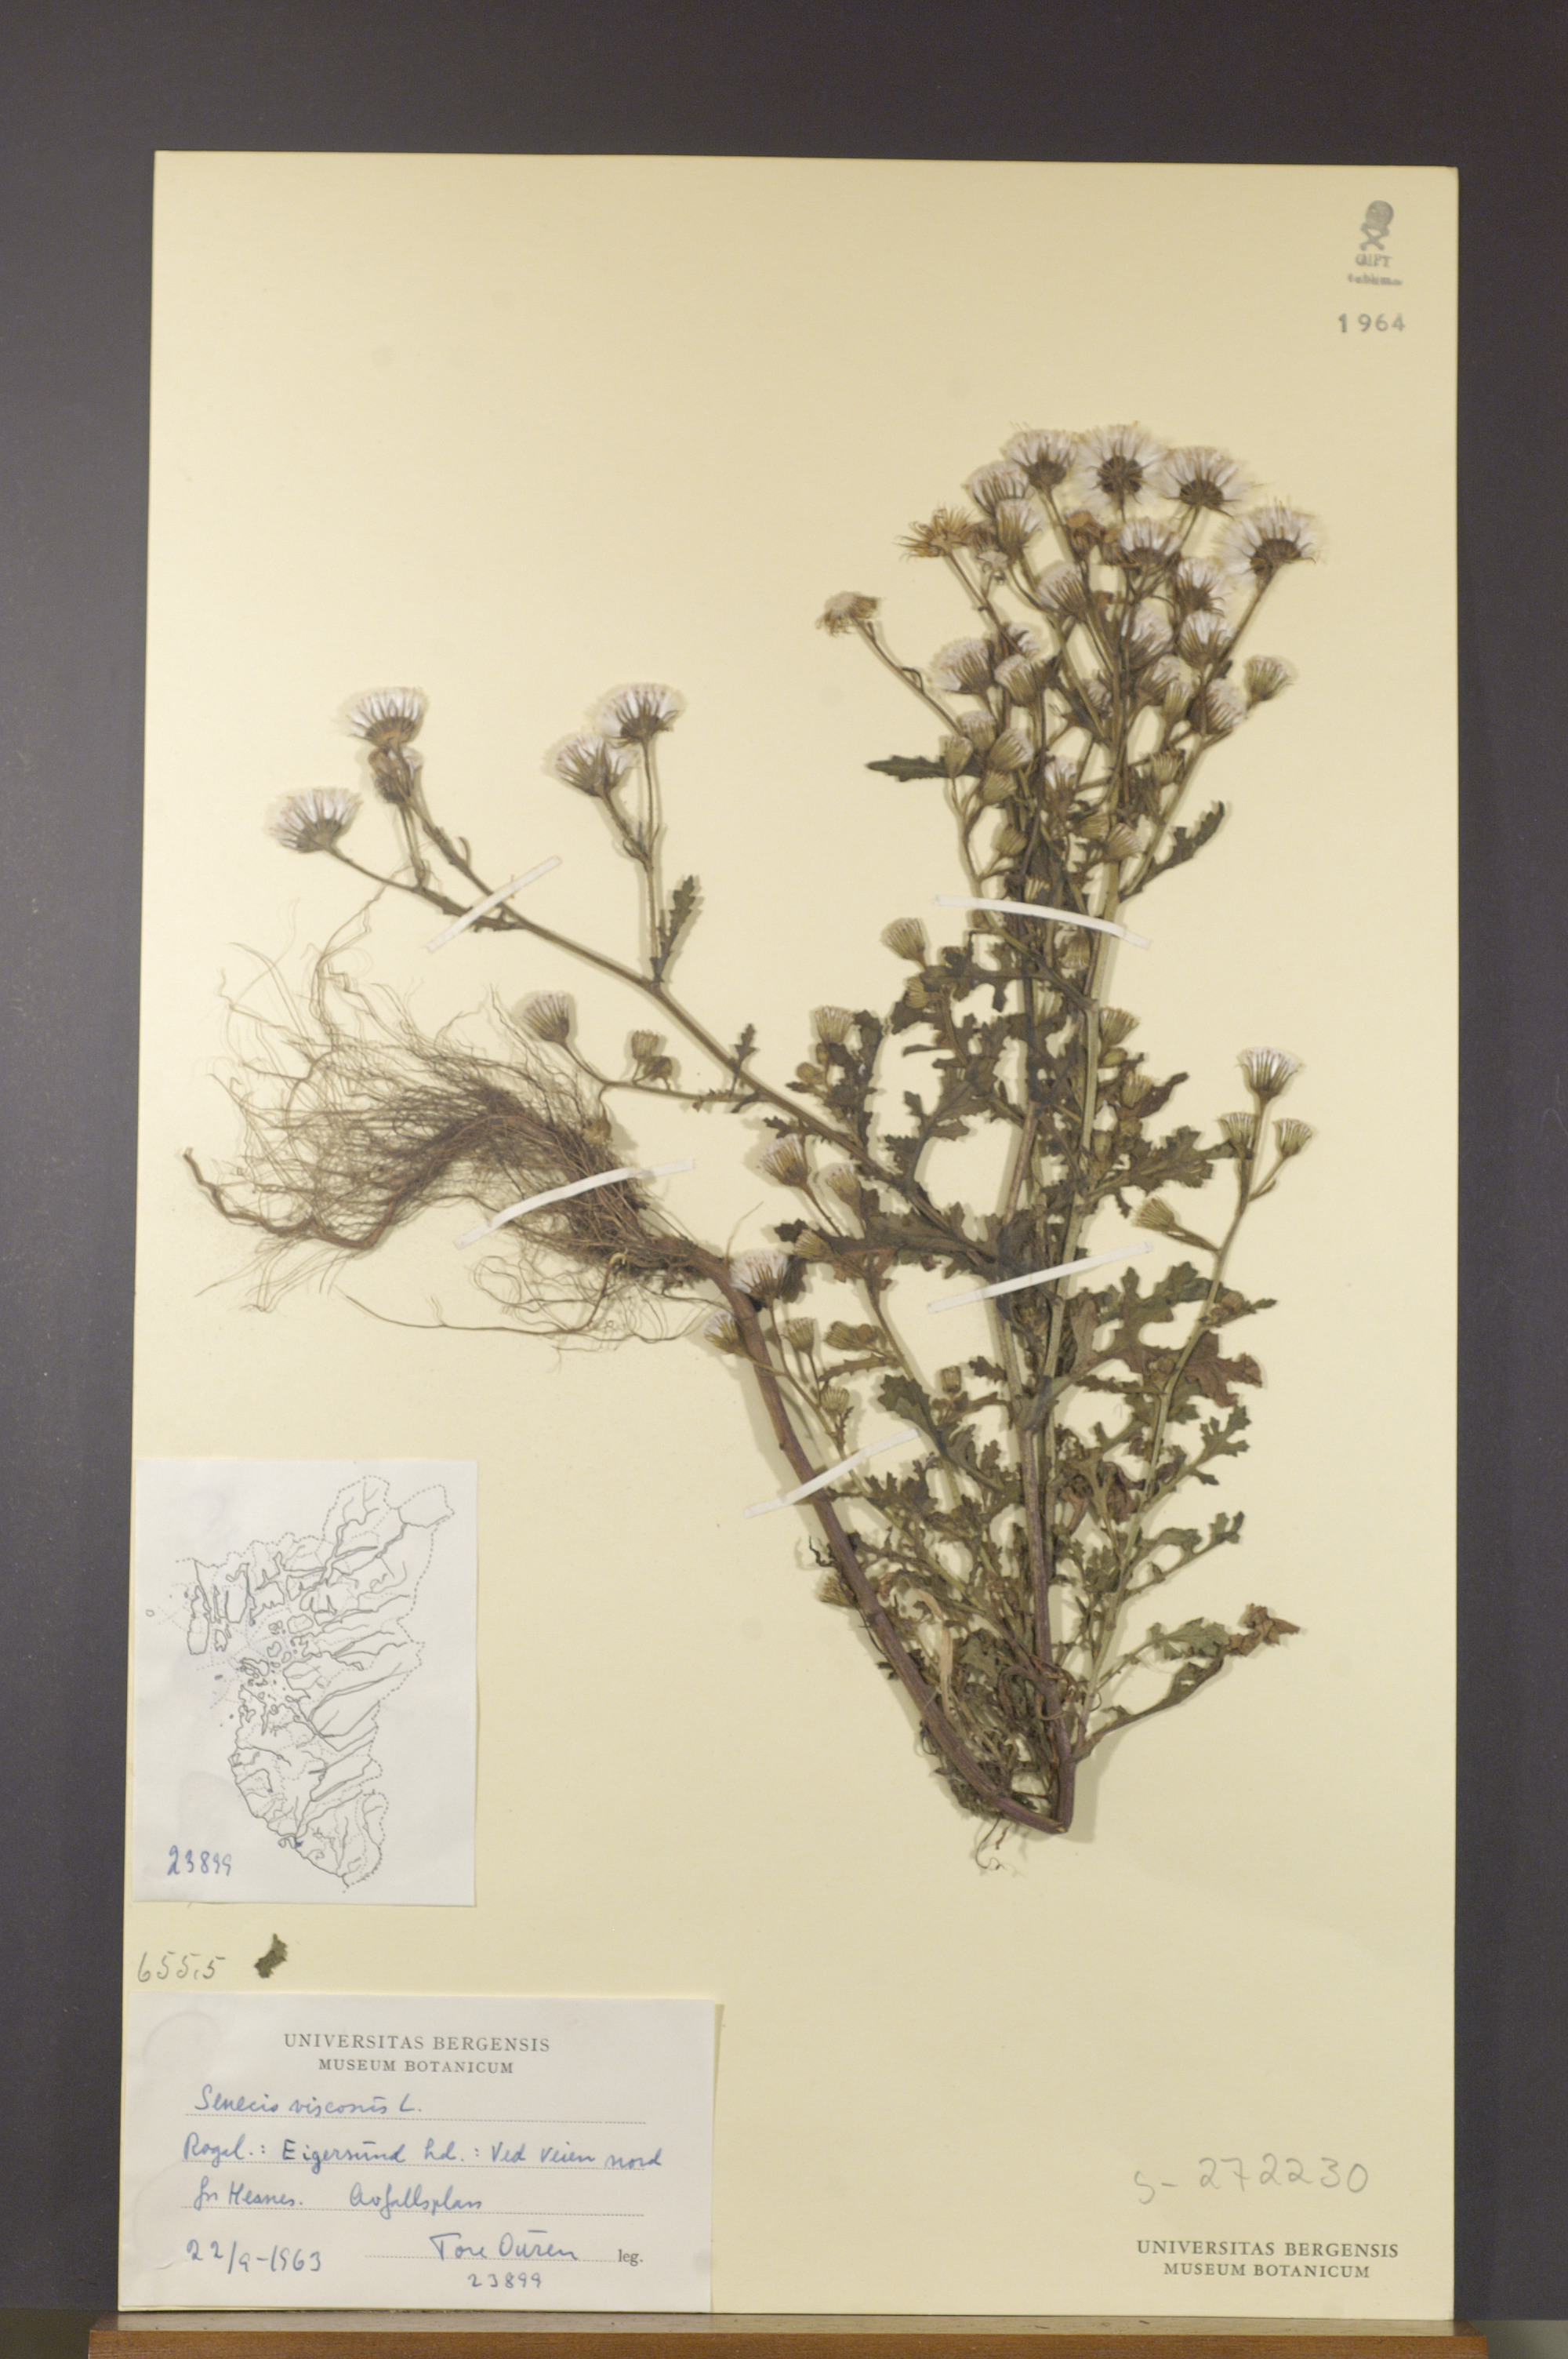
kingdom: Plantae
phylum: Tracheophyta
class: Magnoliopsida
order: Asterales
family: Asteraceae
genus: Senecio
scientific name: Senecio viscosus
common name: Sticky groundsel
